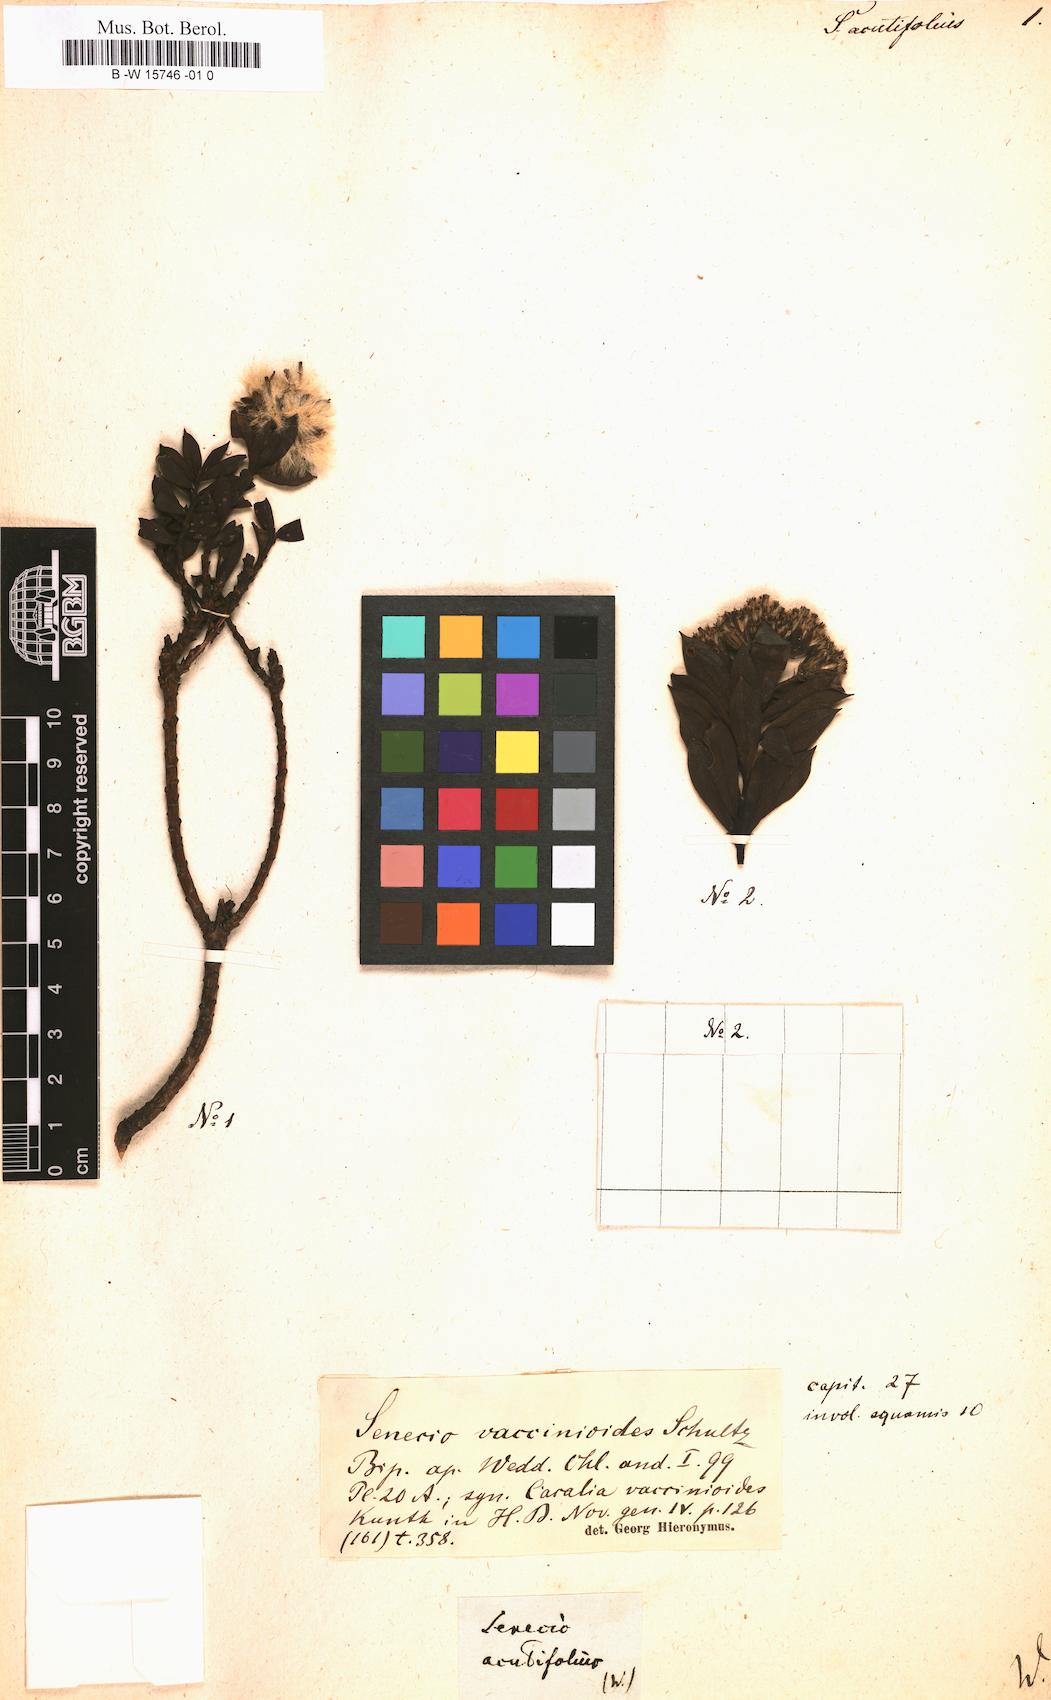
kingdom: Plantae
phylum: Tracheophyta
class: Magnoliopsida
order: Asterales
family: Asteraceae
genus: Senecio
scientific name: Senecio acutifolius
